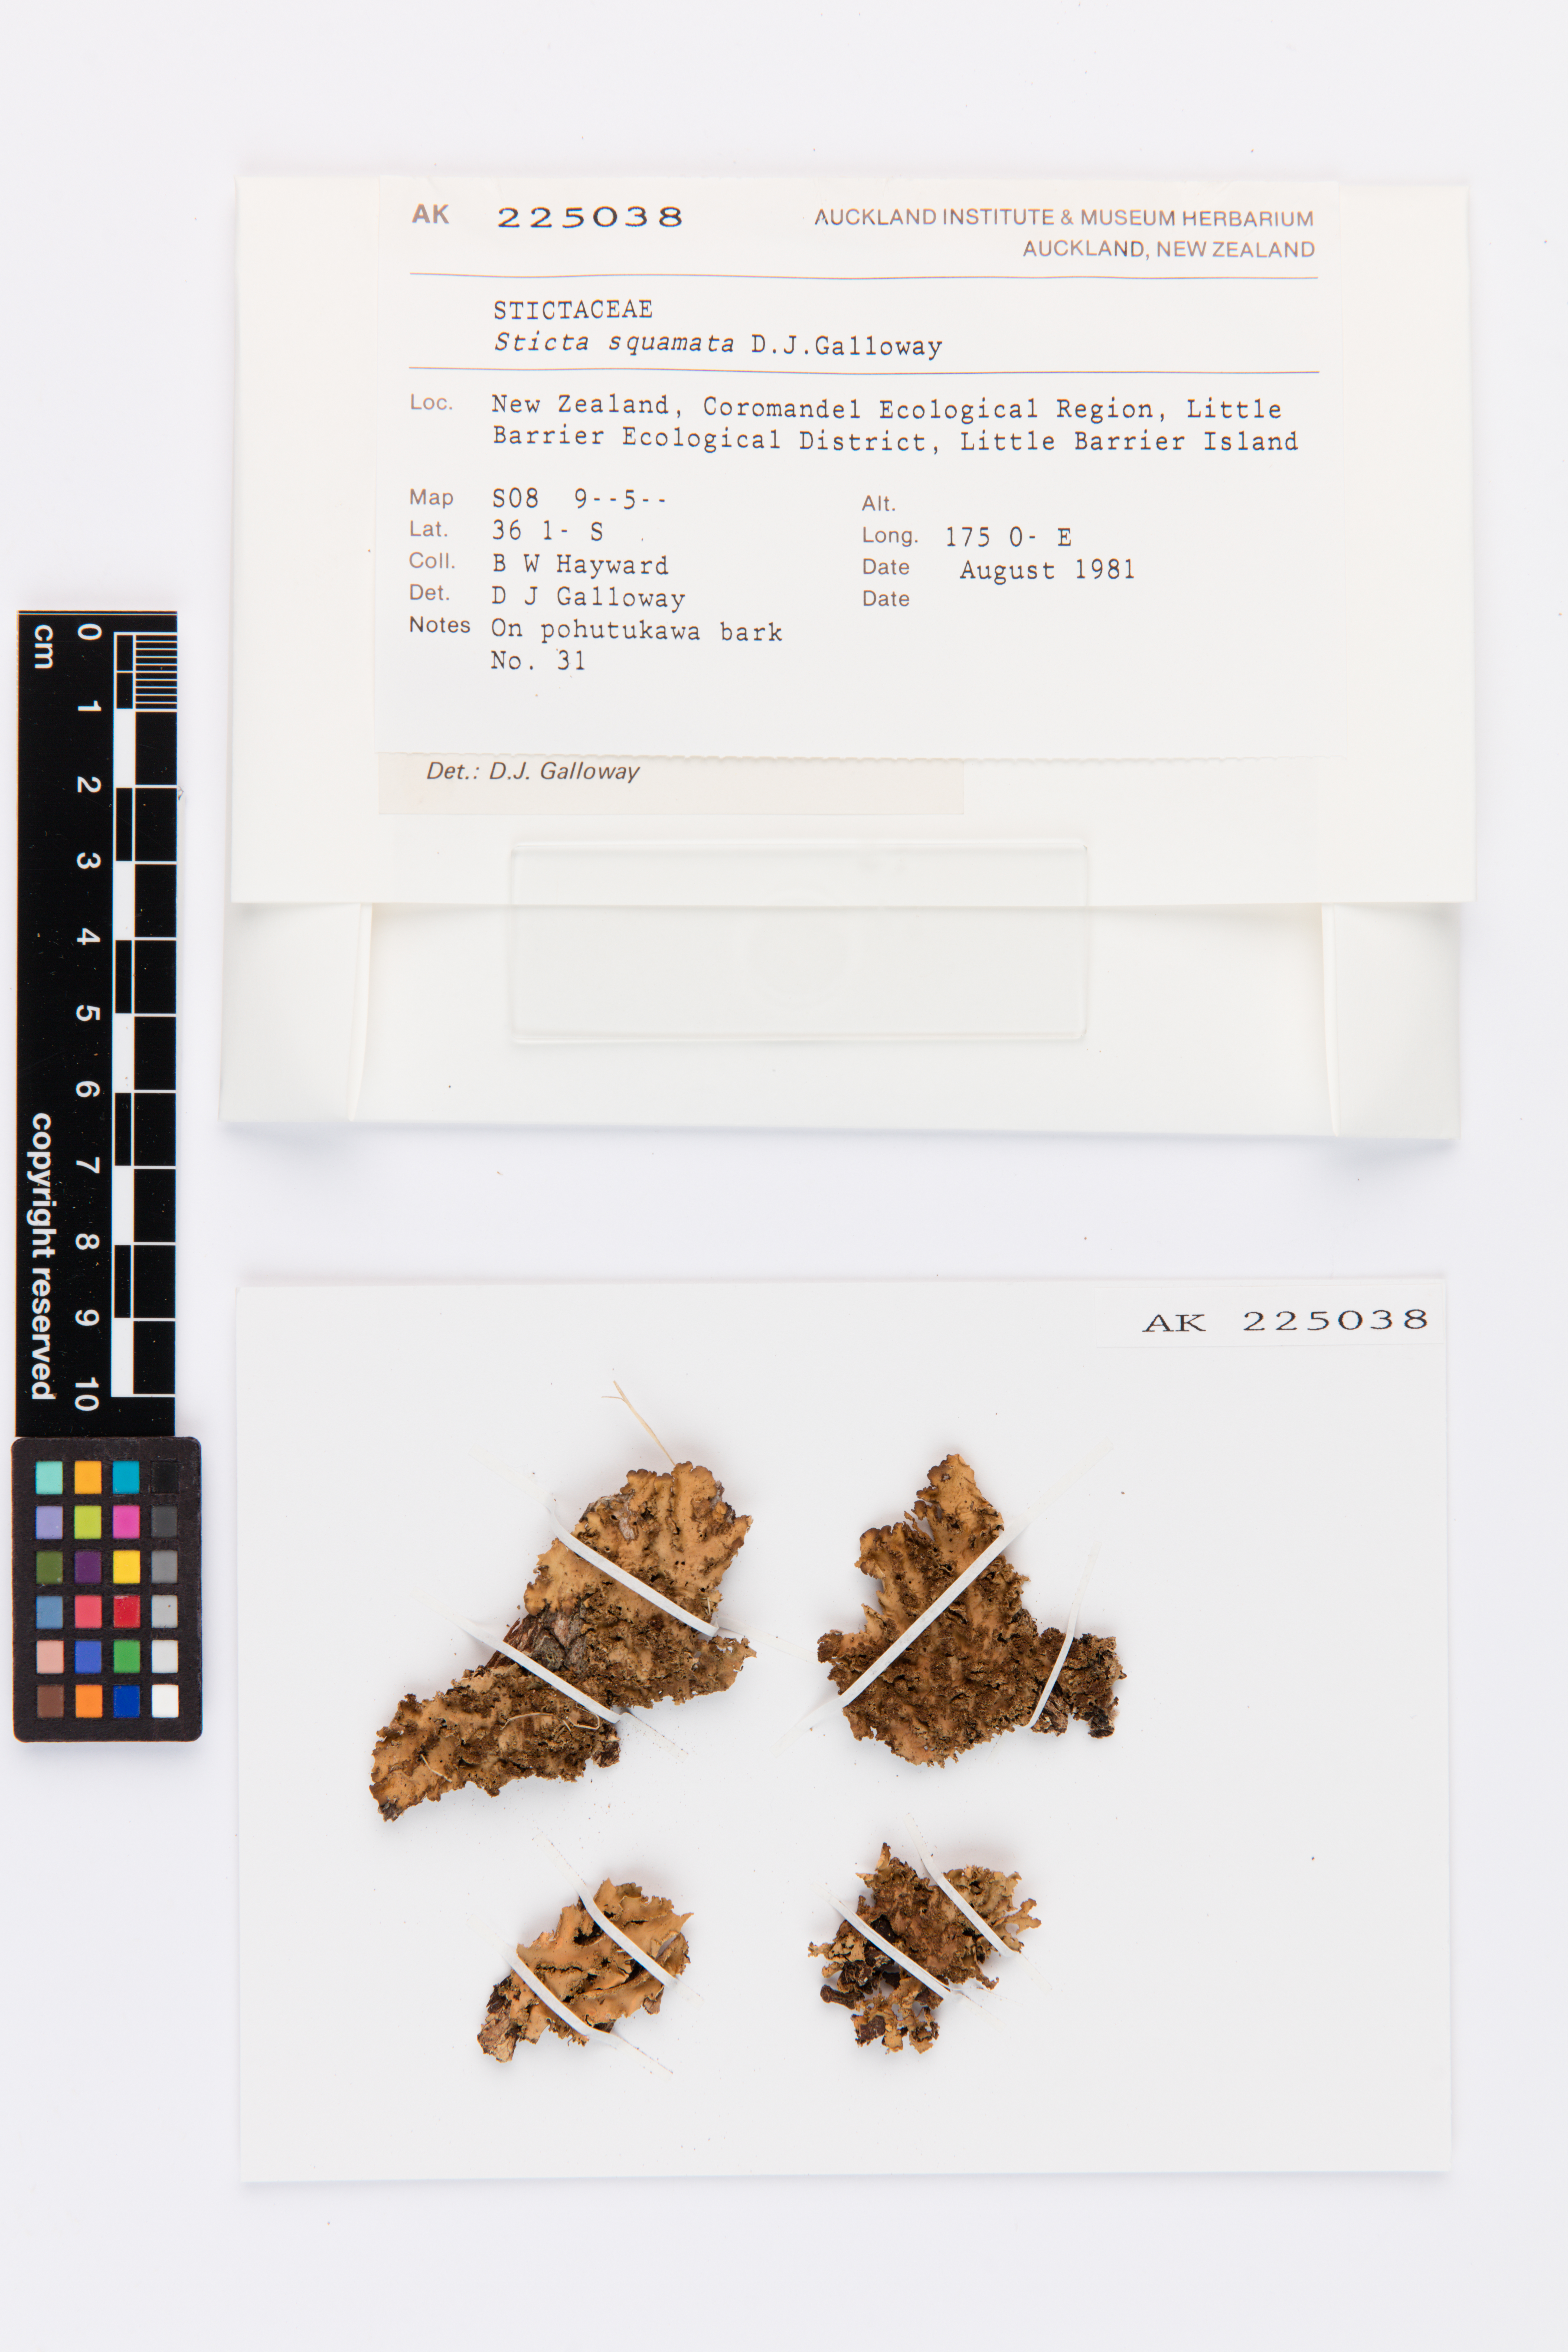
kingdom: Fungi
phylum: Ascomycota
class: Lecanoromycetes
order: Peltigerales
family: Lobariaceae
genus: Sticta
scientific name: Sticta squamata
